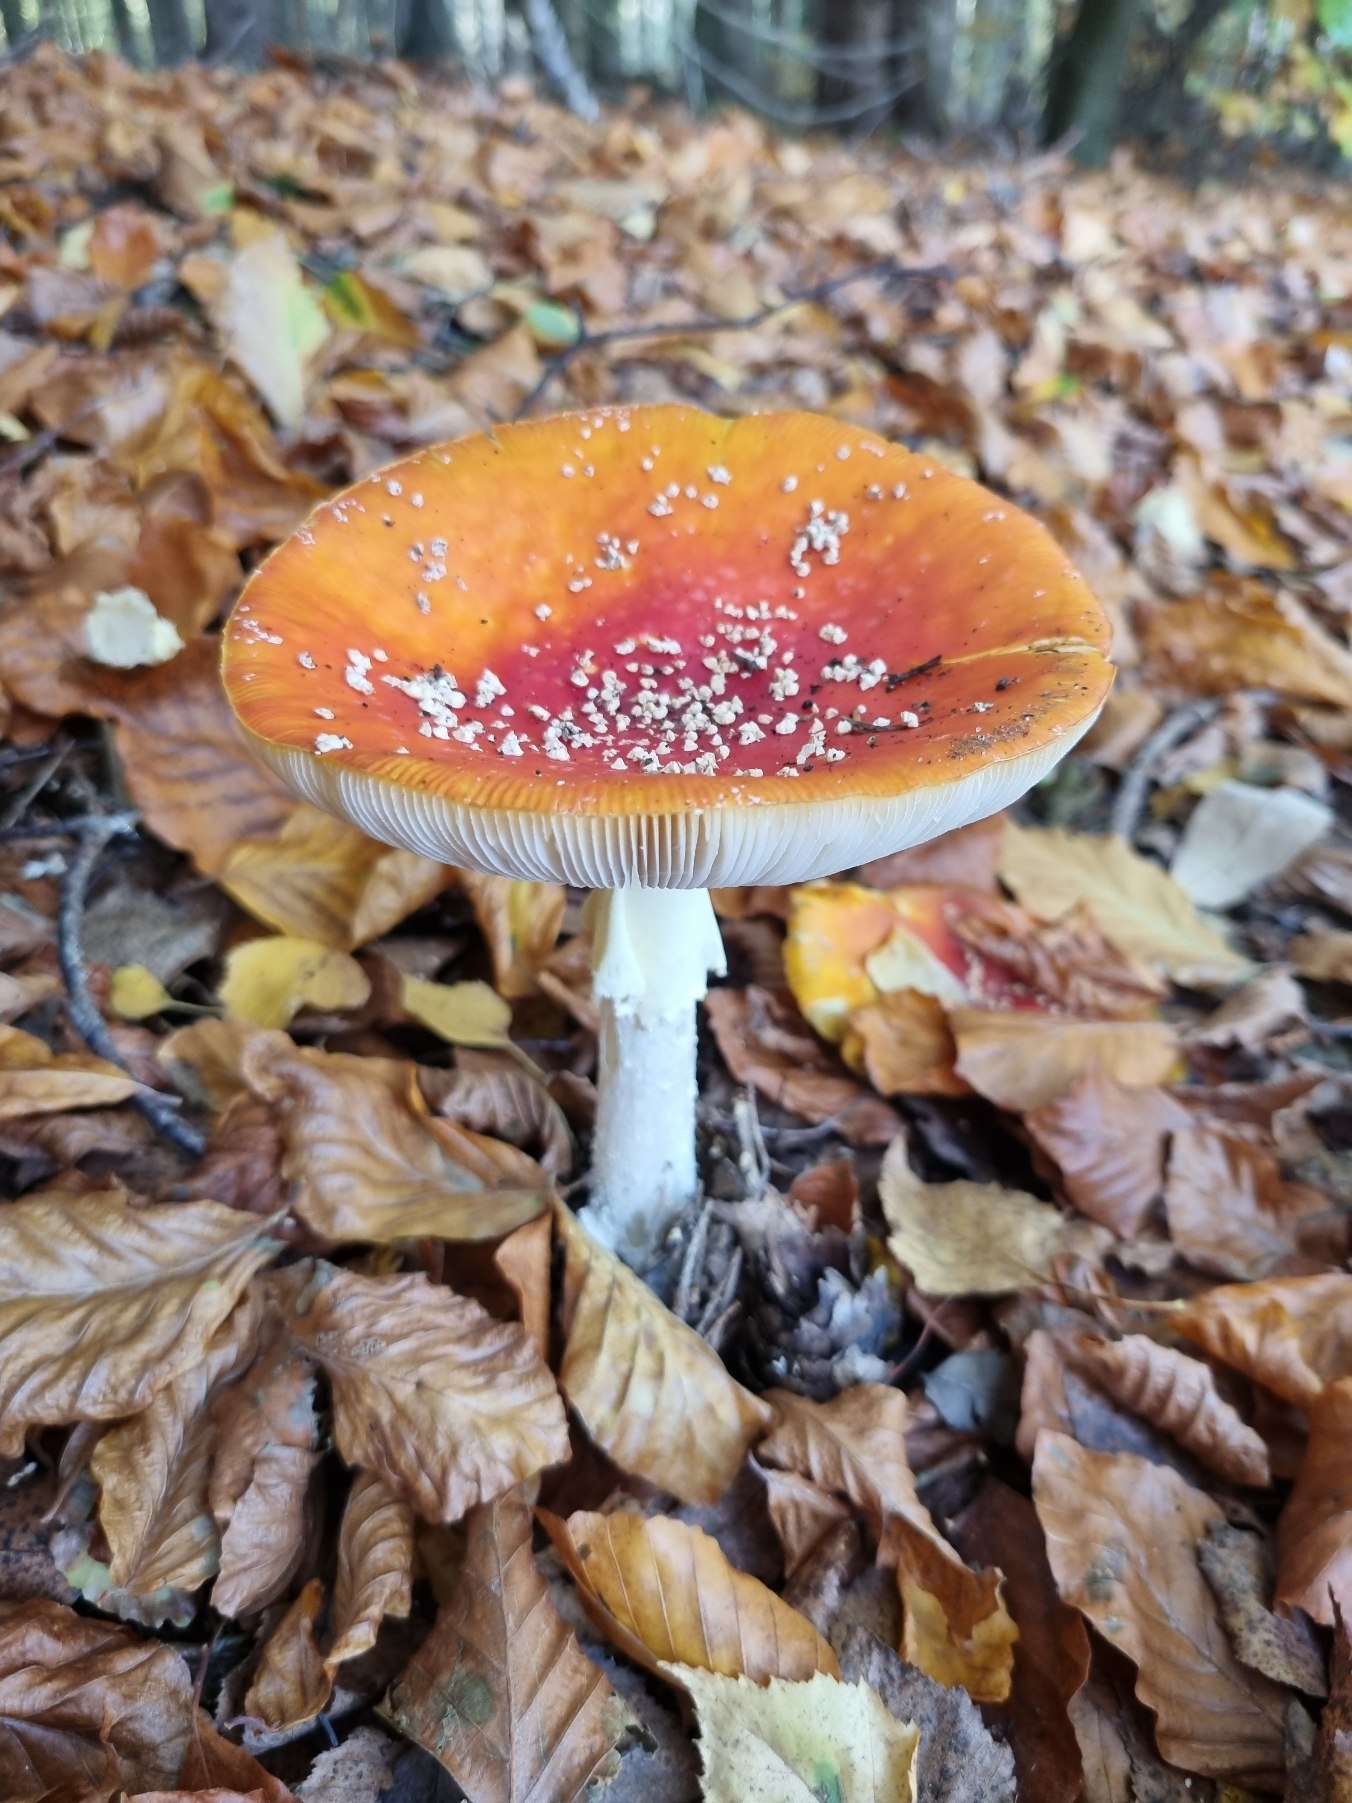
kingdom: Fungi
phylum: Basidiomycota
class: Agaricomycetes
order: Agaricales
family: Amanitaceae
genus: Amanita
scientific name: Amanita muscaria
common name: Rød fluesvamp
